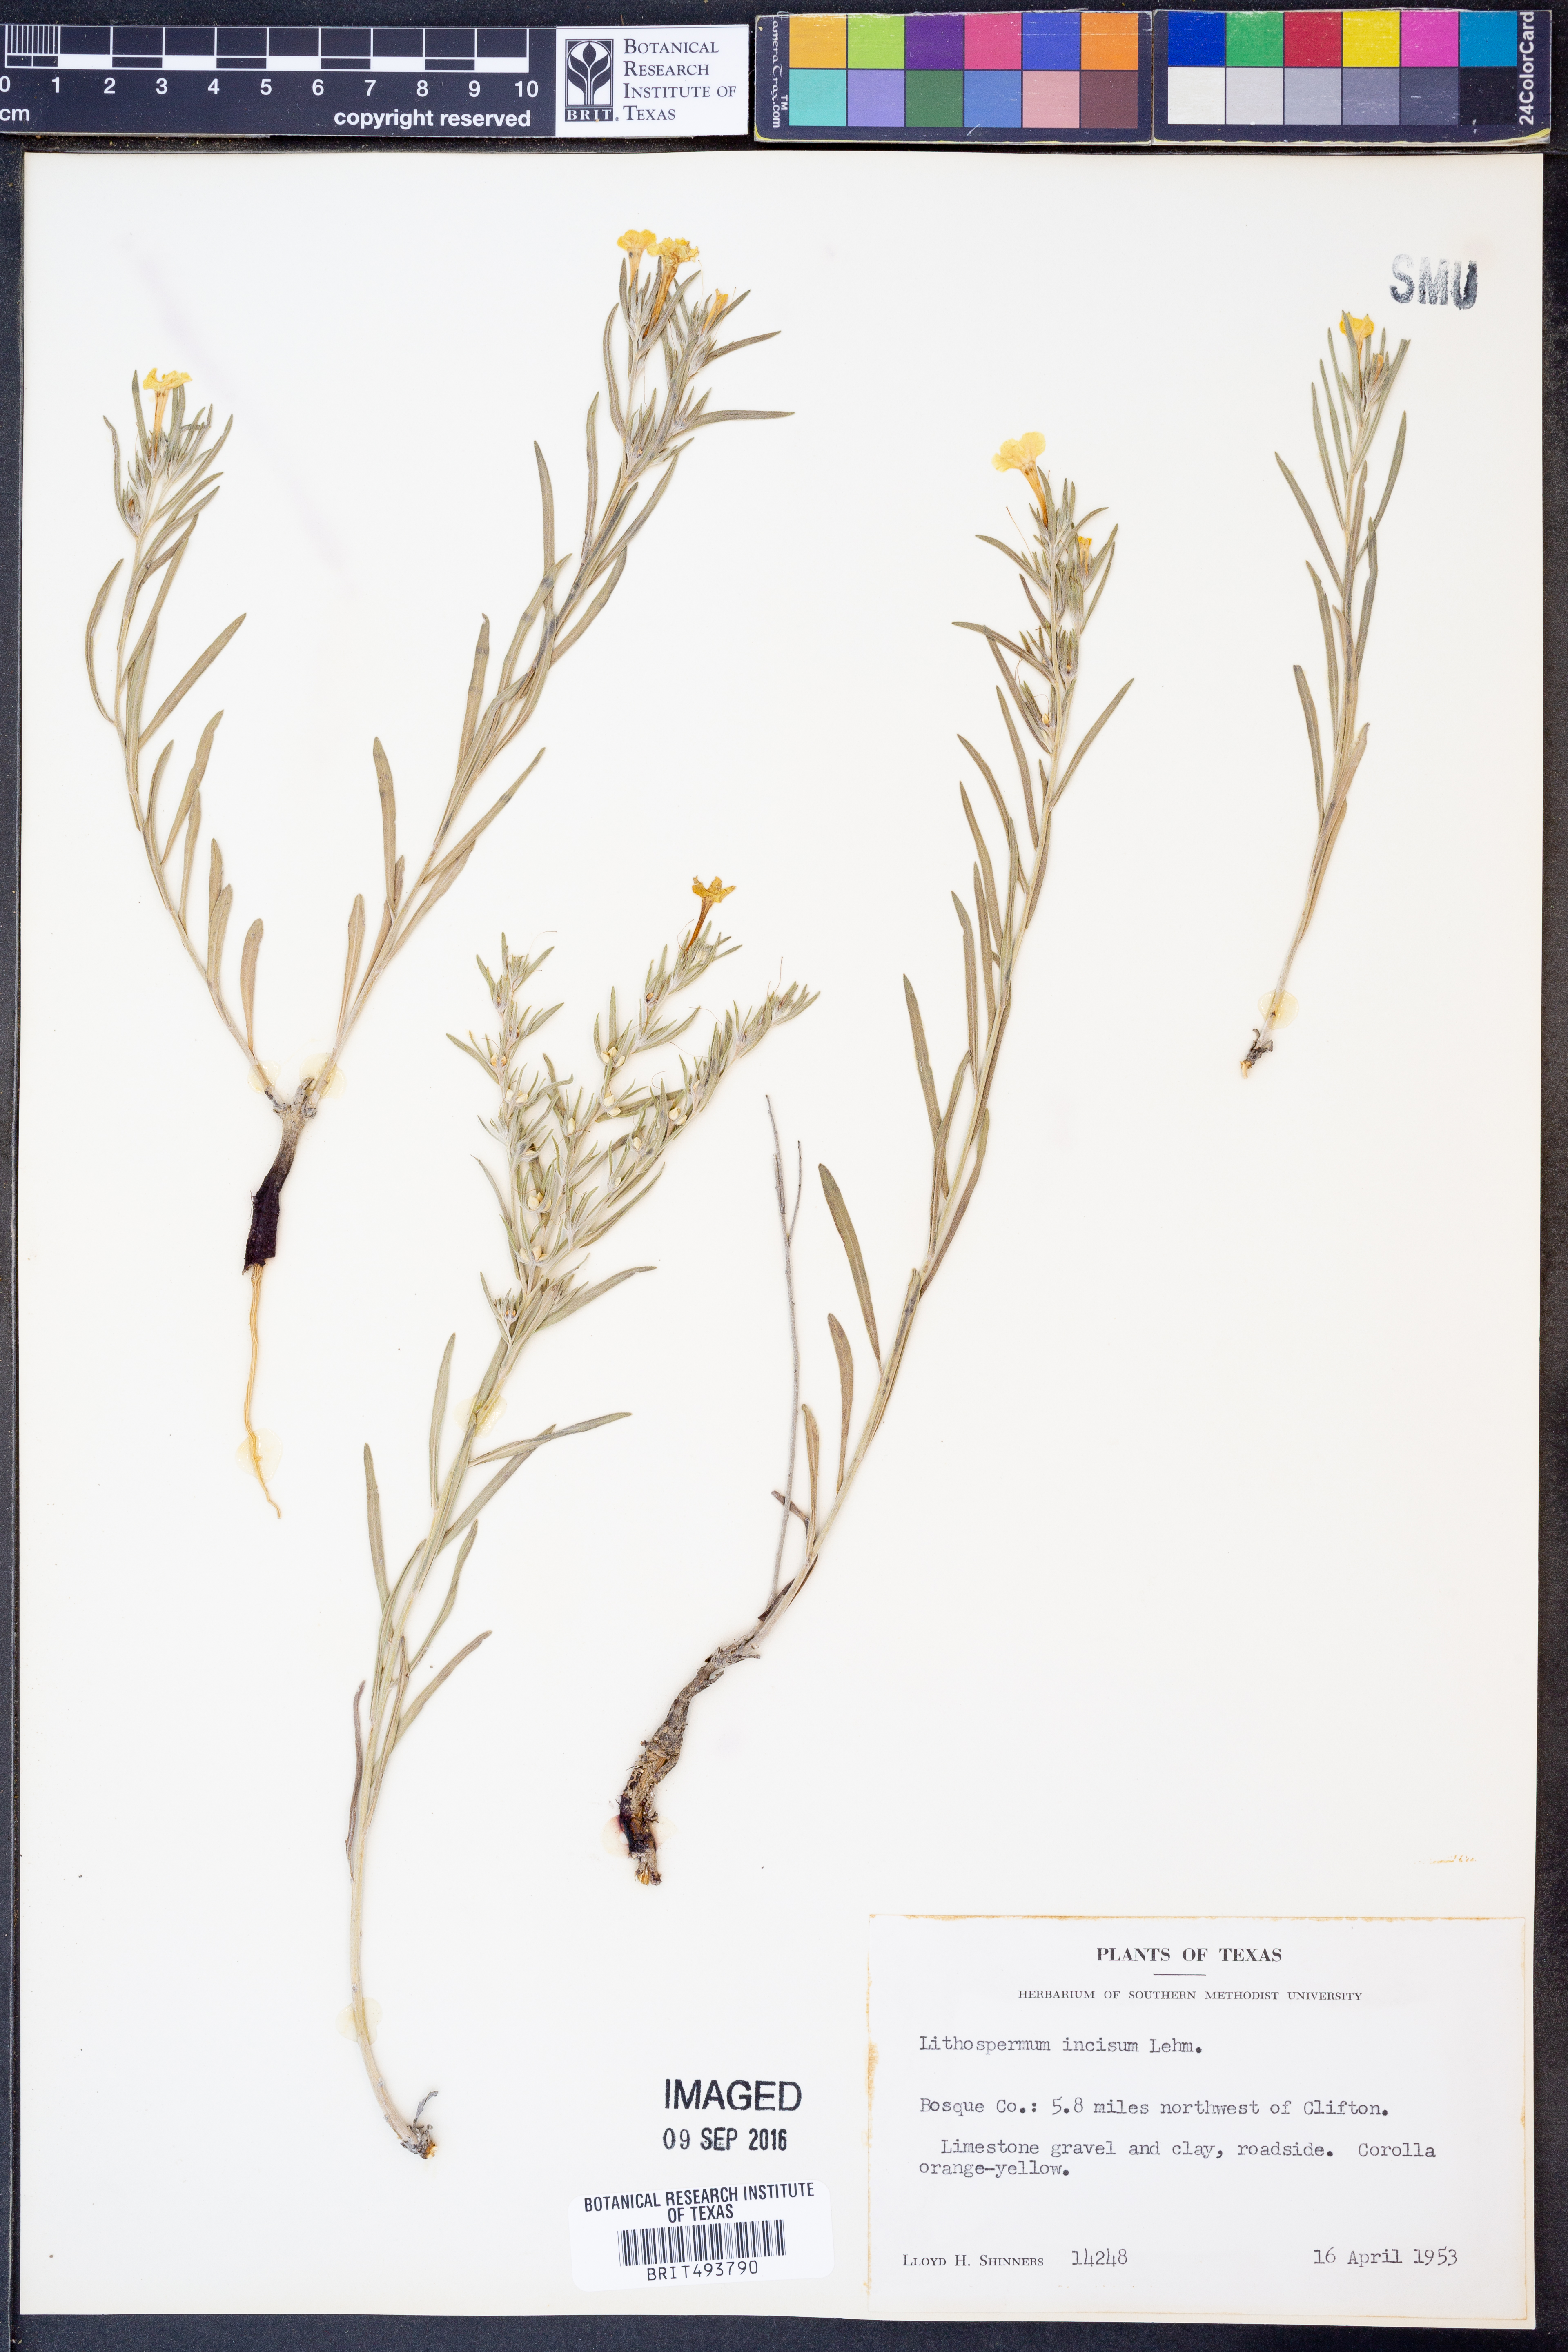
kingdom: Plantae
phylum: Tracheophyta
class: Magnoliopsida
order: Boraginales
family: Boraginaceae
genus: Lithospermum
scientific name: Lithospermum incisum
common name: Fringed gromwell
